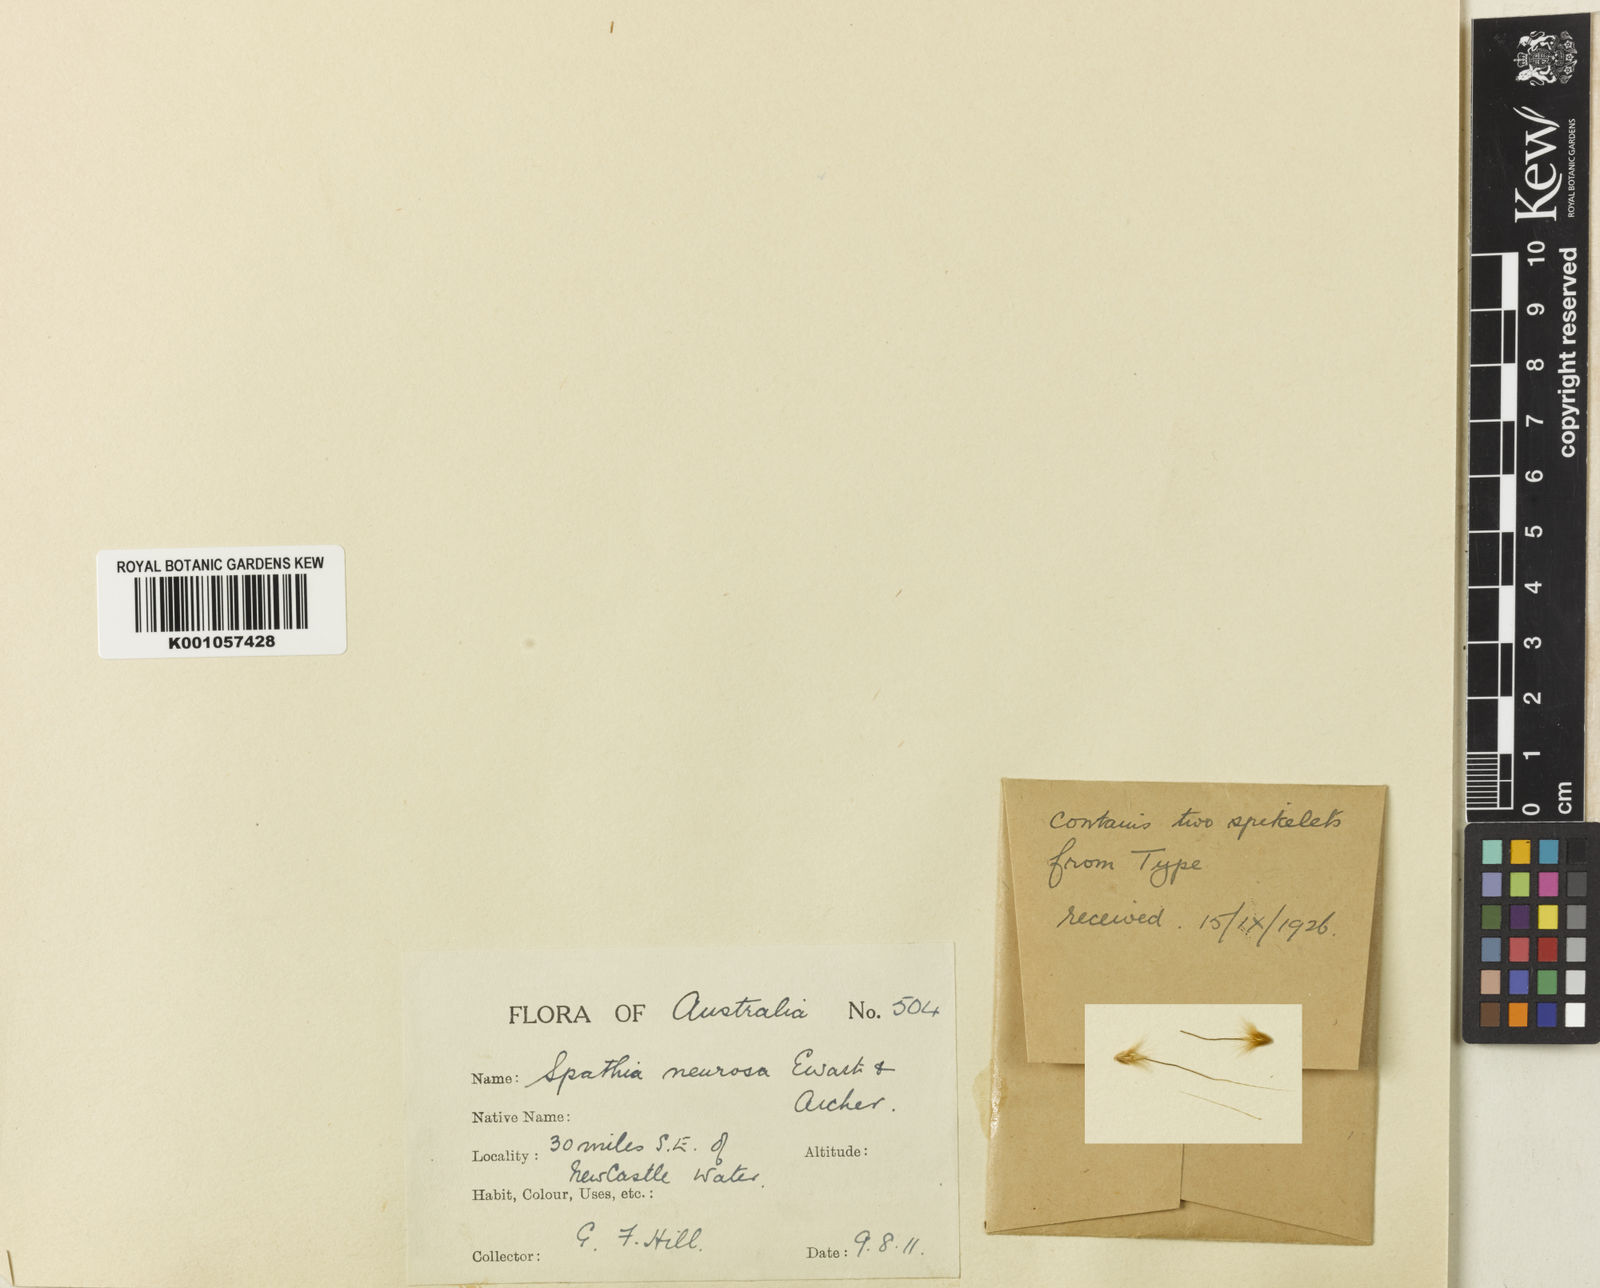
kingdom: Plantae
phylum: Tracheophyta
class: Liliopsida
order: Poales
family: Poaceae
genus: Spathia
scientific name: Spathia neurosa
